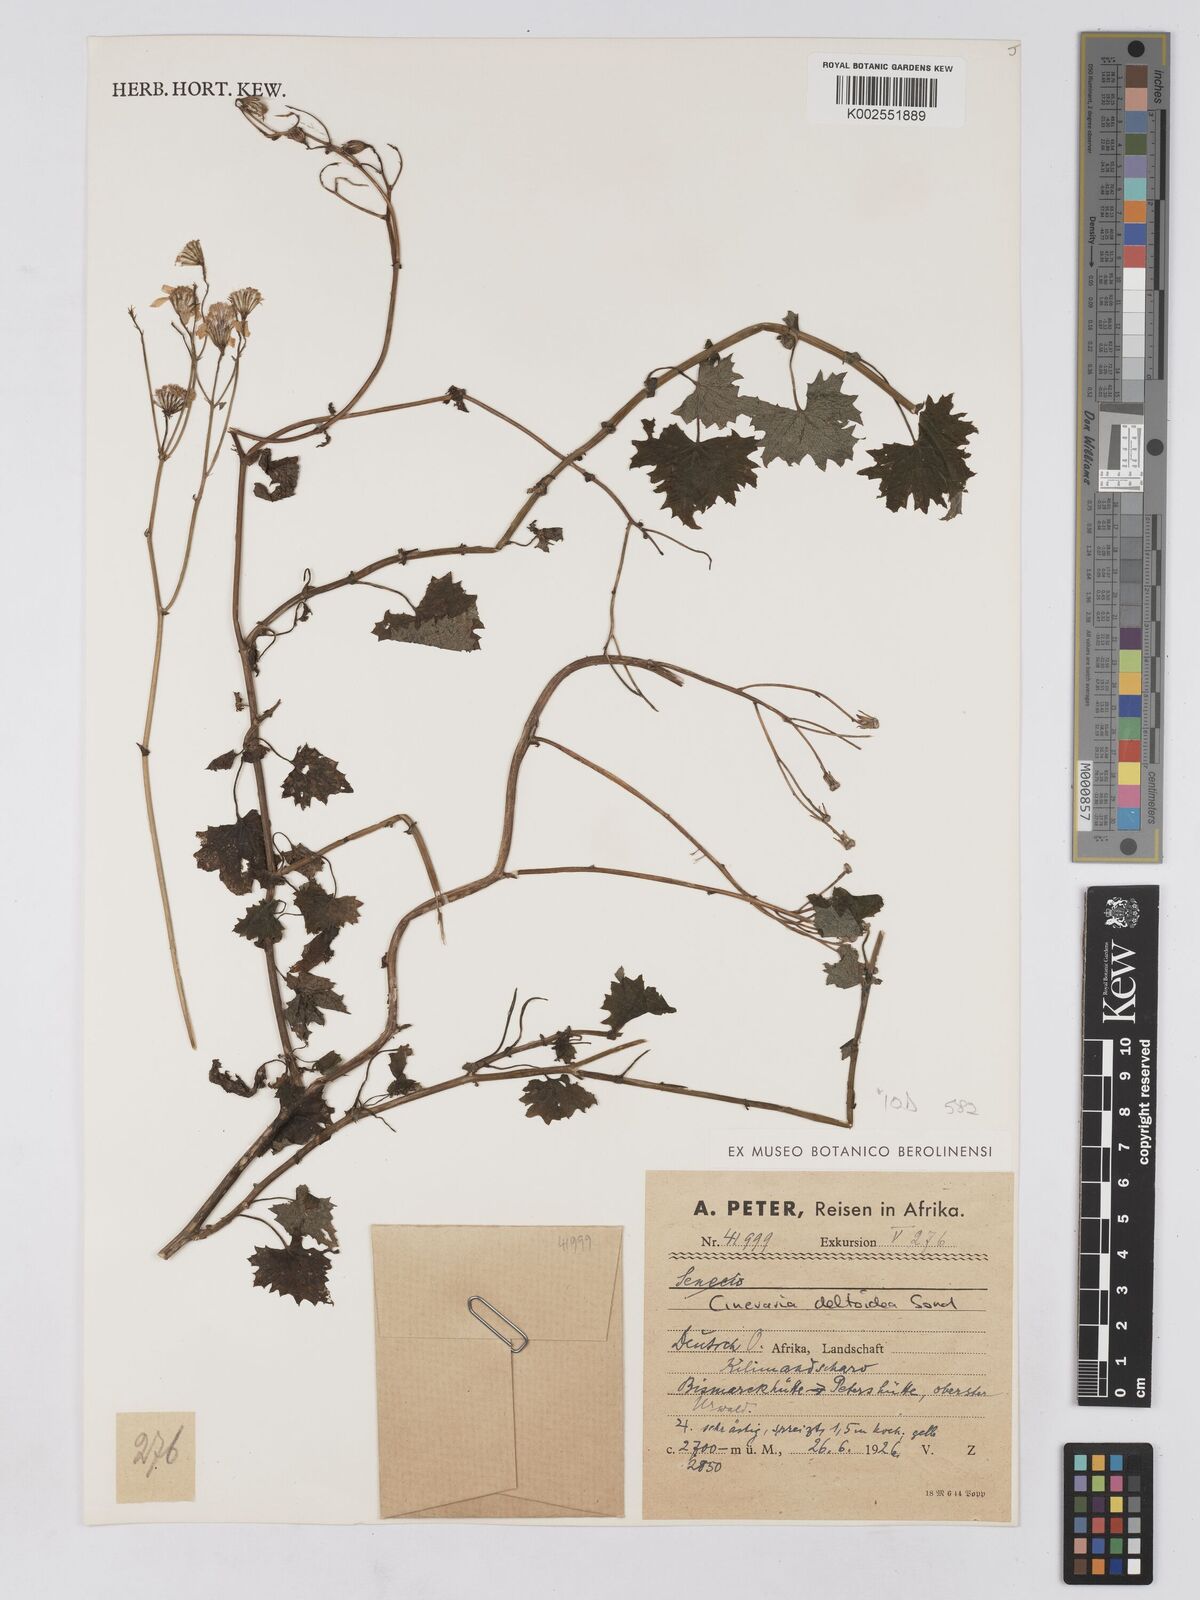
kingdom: Plantae
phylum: Tracheophyta
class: Magnoliopsida
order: Asterales
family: Asteraceae
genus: Cineraria
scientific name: Cineraria deltoidea
